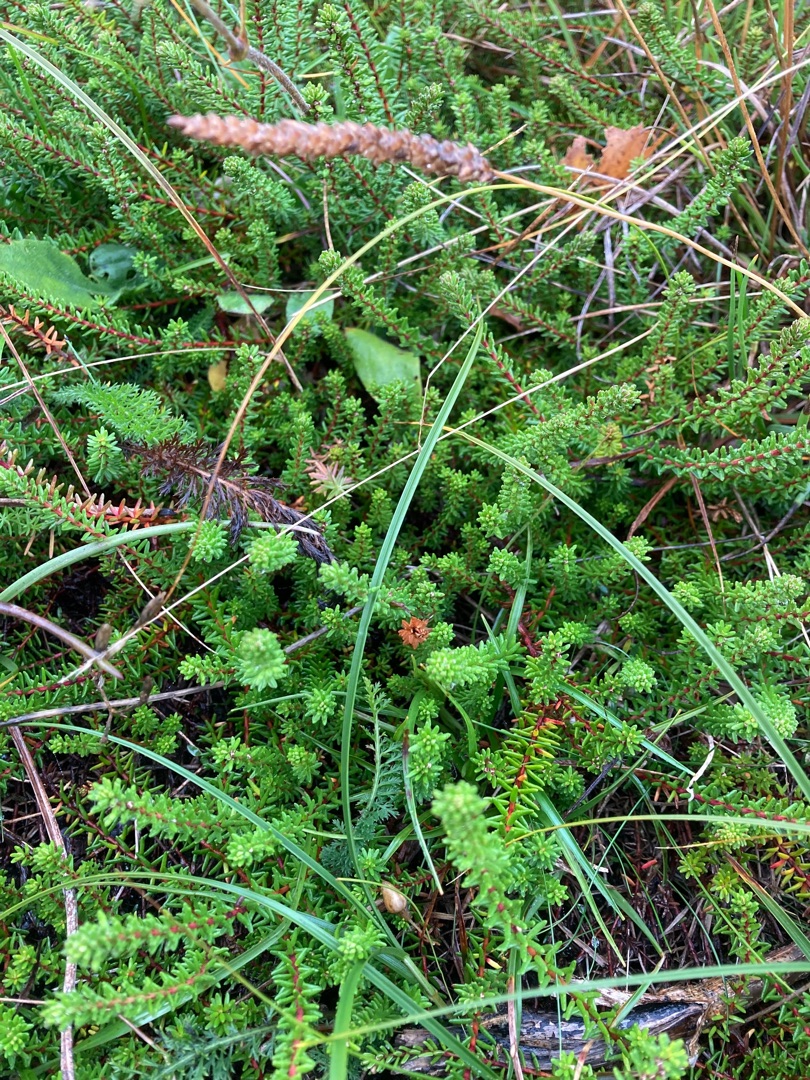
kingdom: Plantae
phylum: Tracheophyta
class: Magnoliopsida
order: Ericales
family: Ericaceae
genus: Empetrum
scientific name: Empetrum nigrum
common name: Revling
